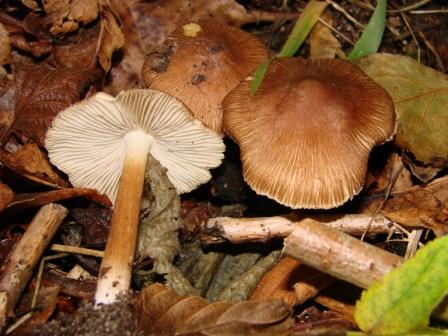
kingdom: Fungi
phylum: Basidiomycota
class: Agaricomycetes
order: Agaricales
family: Inocybaceae
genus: Inosperma
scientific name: Inosperma
